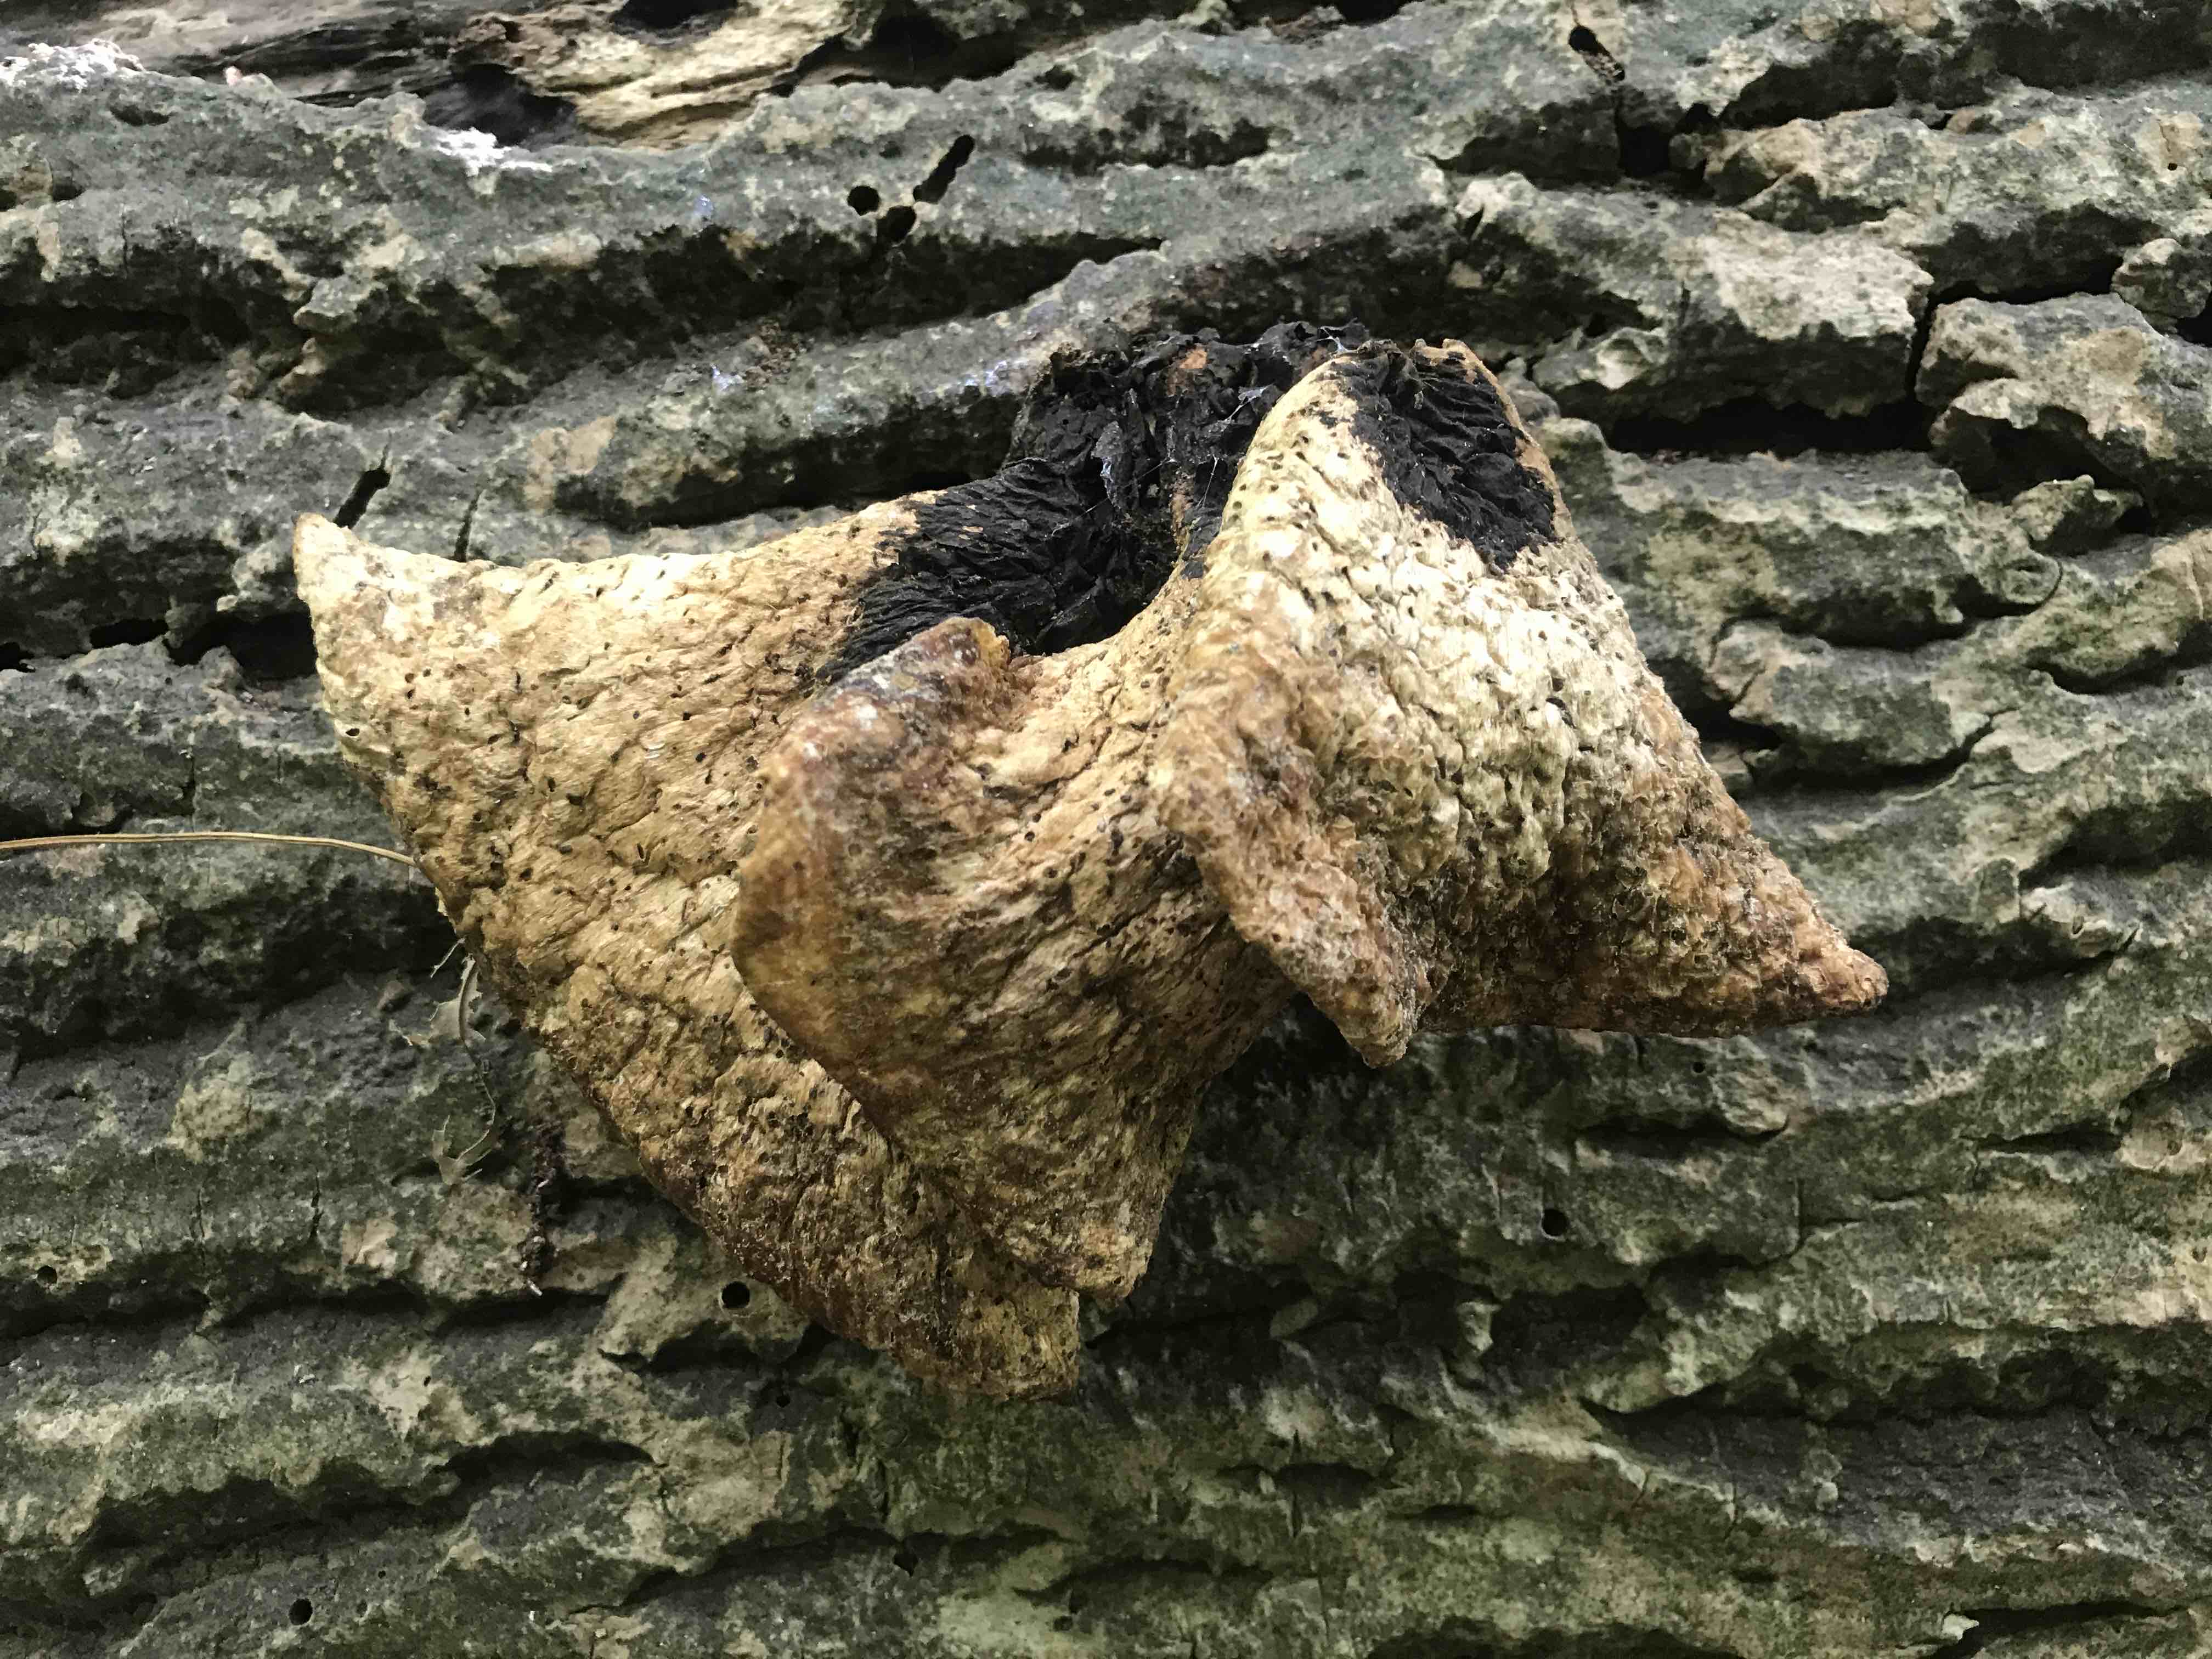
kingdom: Fungi
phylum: Basidiomycota
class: Agaricomycetes
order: Polyporales
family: Polyporaceae
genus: Cerioporus
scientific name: Cerioporus squamosus
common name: skællet stilkporesvamp
